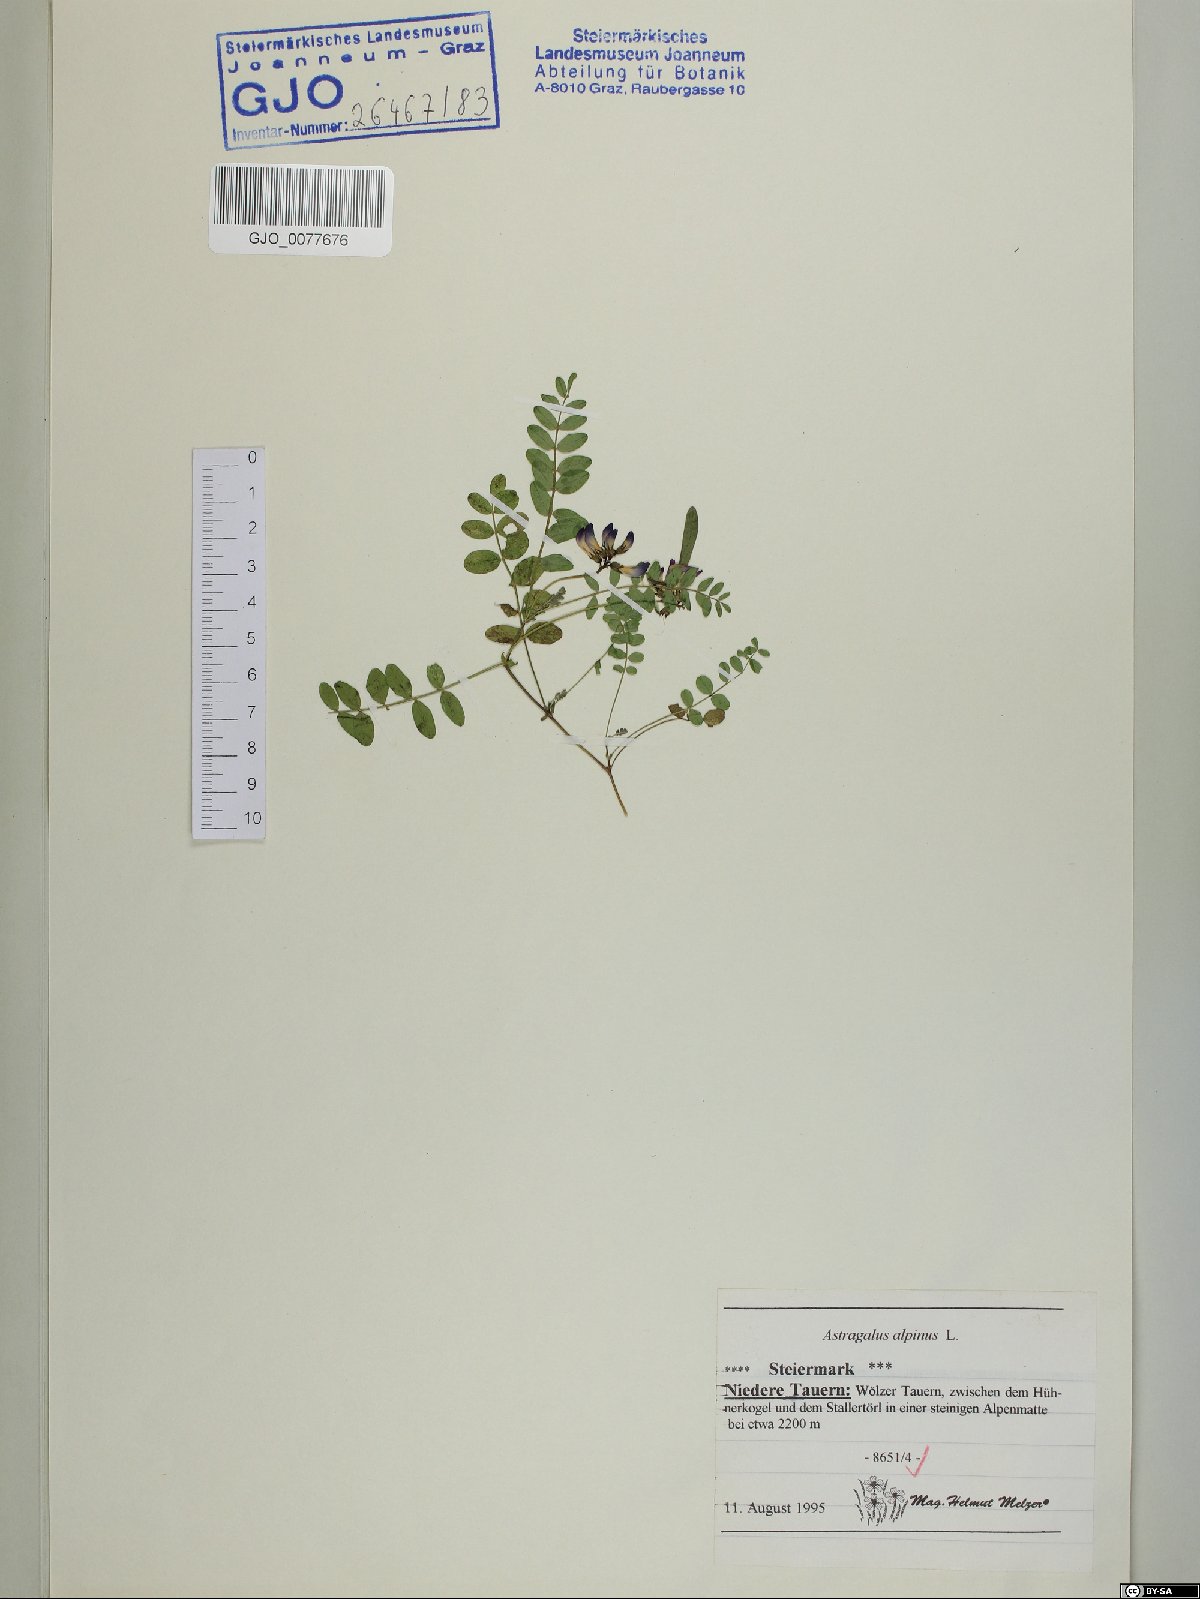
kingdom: Plantae
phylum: Tracheophyta
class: Magnoliopsida
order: Fabales
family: Fabaceae
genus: Astragalus
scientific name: Astragalus alpinus
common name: Alpine milk-vetch
